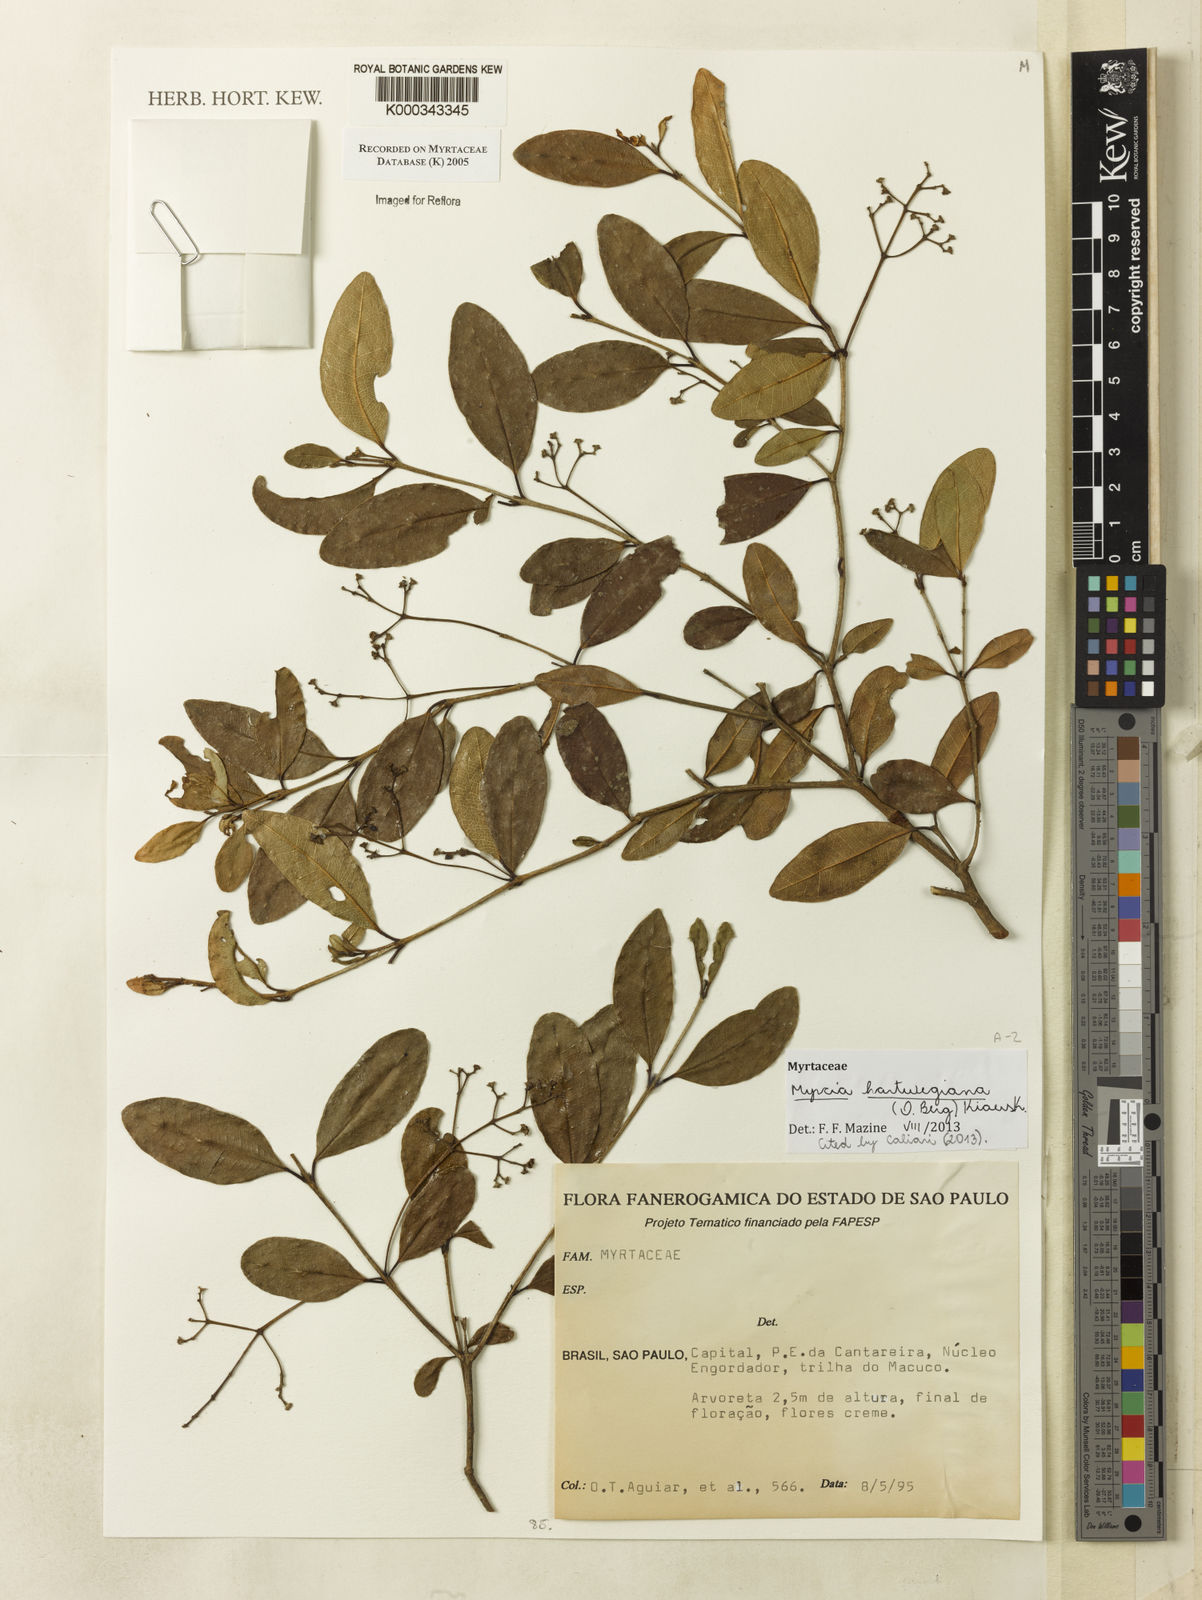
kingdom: Plantae
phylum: Tracheophyta
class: Magnoliopsida
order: Myrtales
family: Myrtaceae
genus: Myrcia
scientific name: Myrcia guianensis
